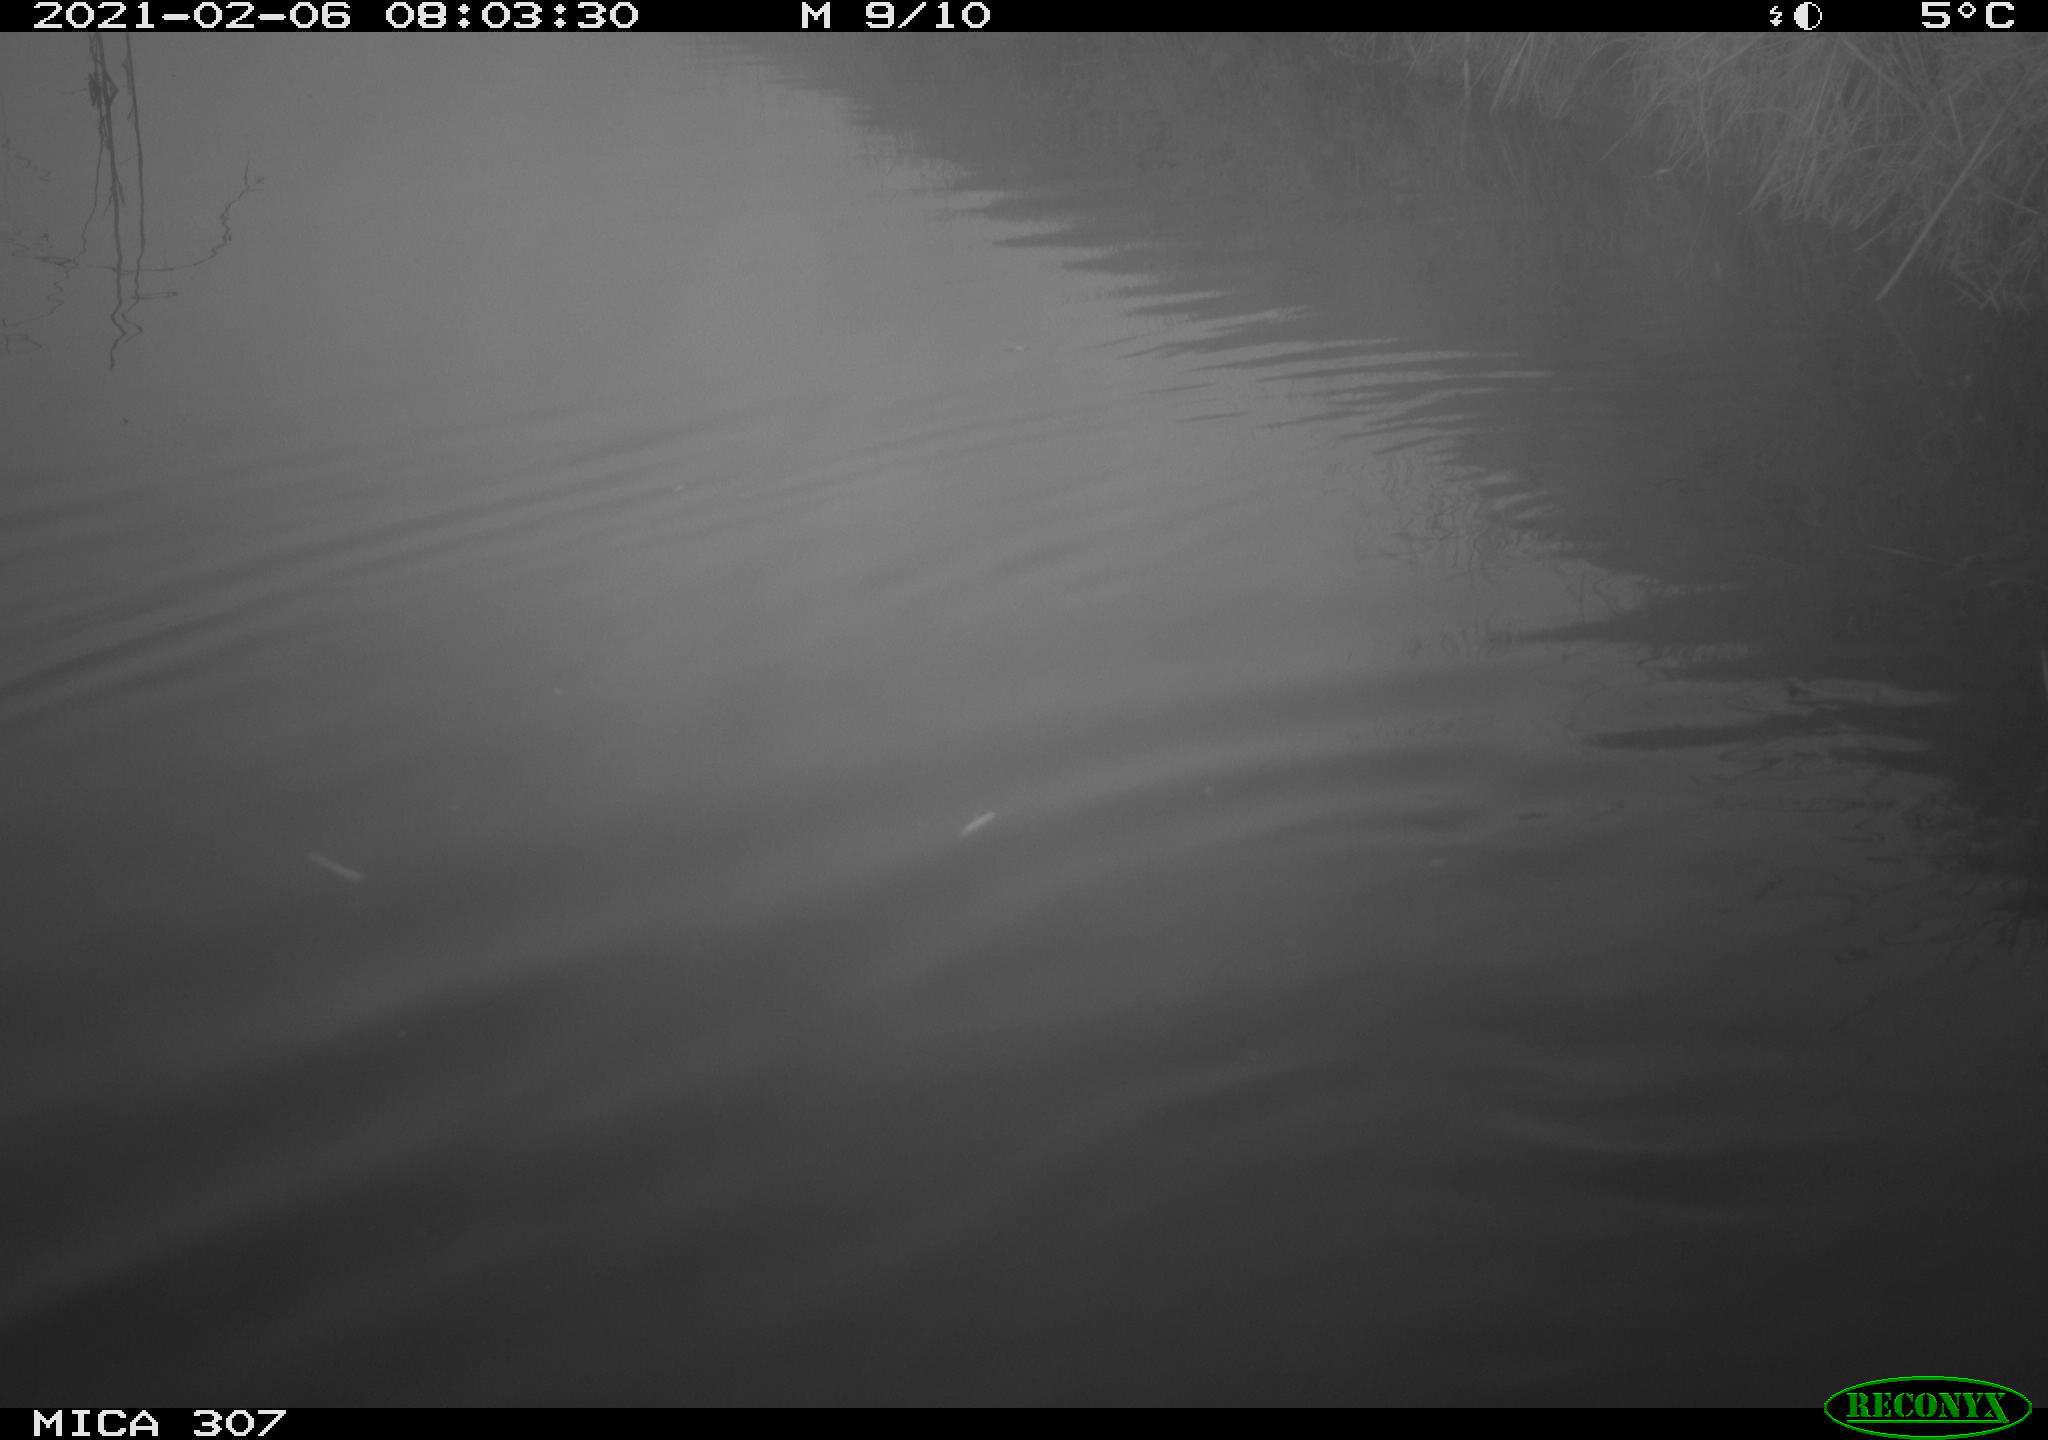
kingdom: Animalia
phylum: Chordata
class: Mammalia
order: Rodentia
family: Cricetidae
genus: Ondatra
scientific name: Ondatra zibethicus
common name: Muskrat
